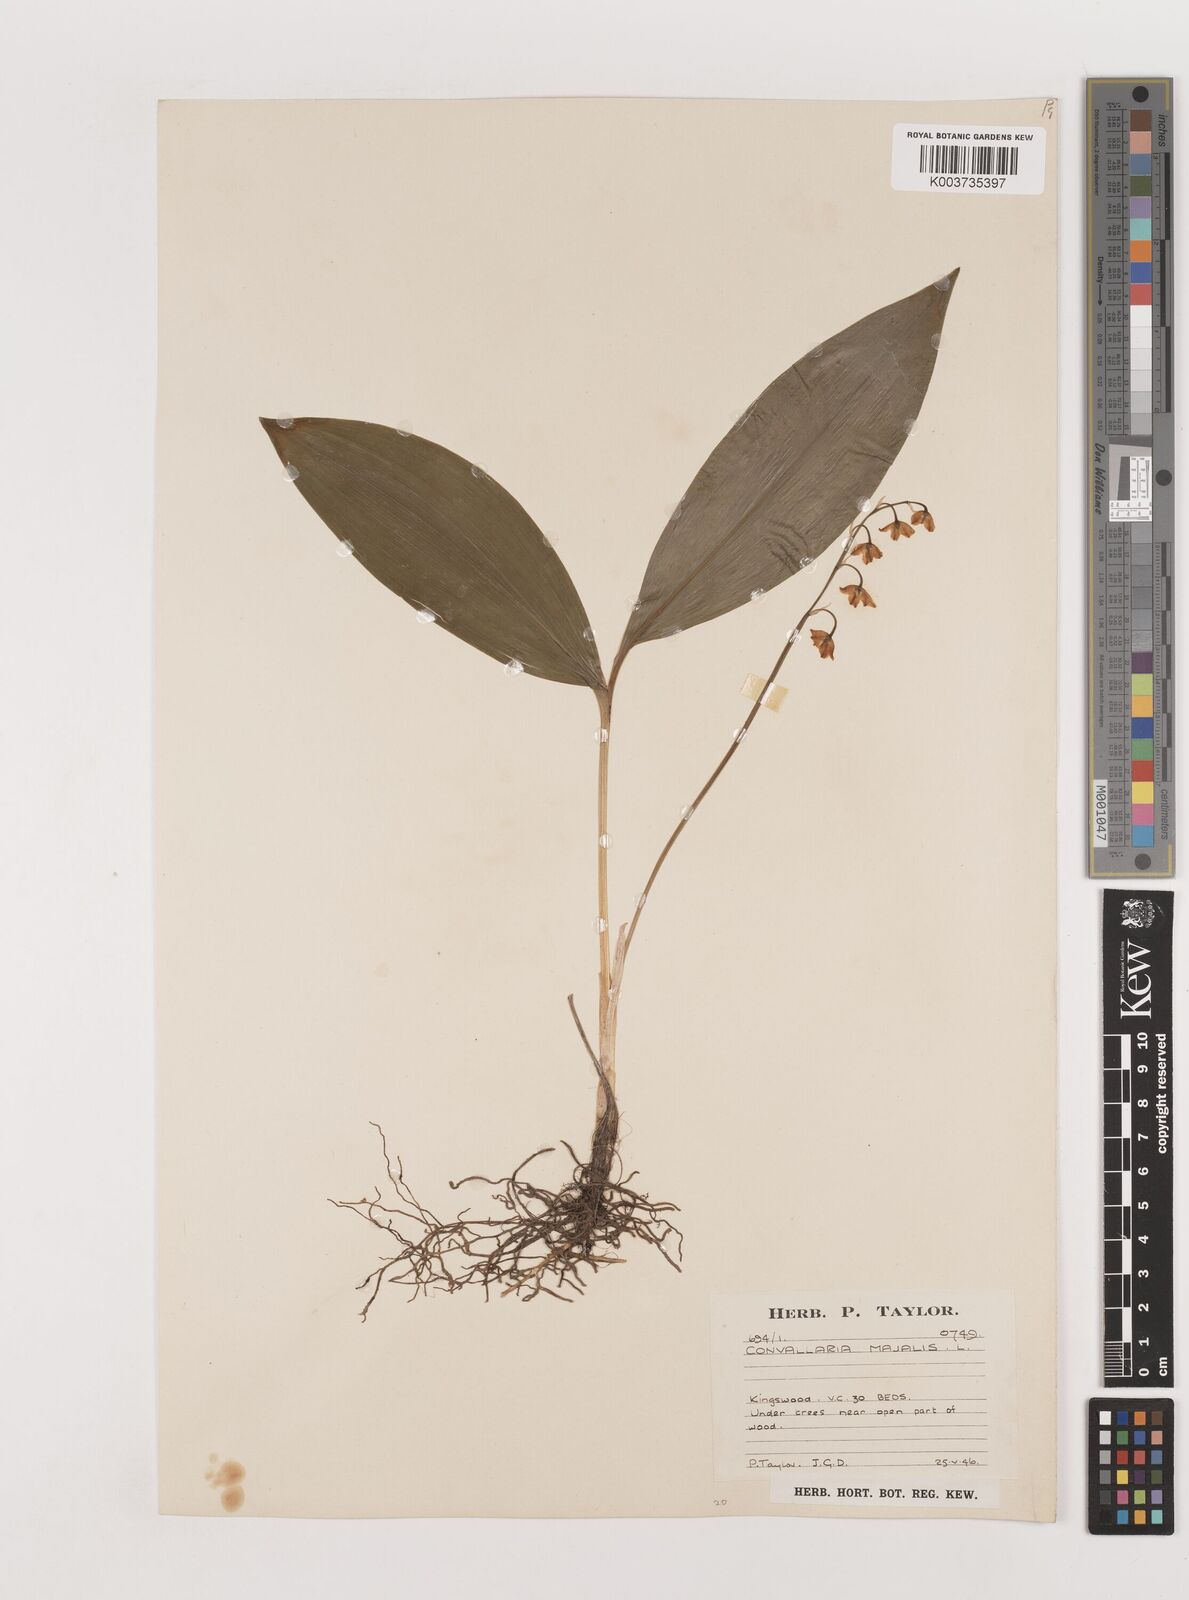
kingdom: Plantae
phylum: Tracheophyta
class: Liliopsida
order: Asparagales
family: Asparagaceae
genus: Convallaria
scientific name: Convallaria majalis
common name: Lily-of-the-valley
